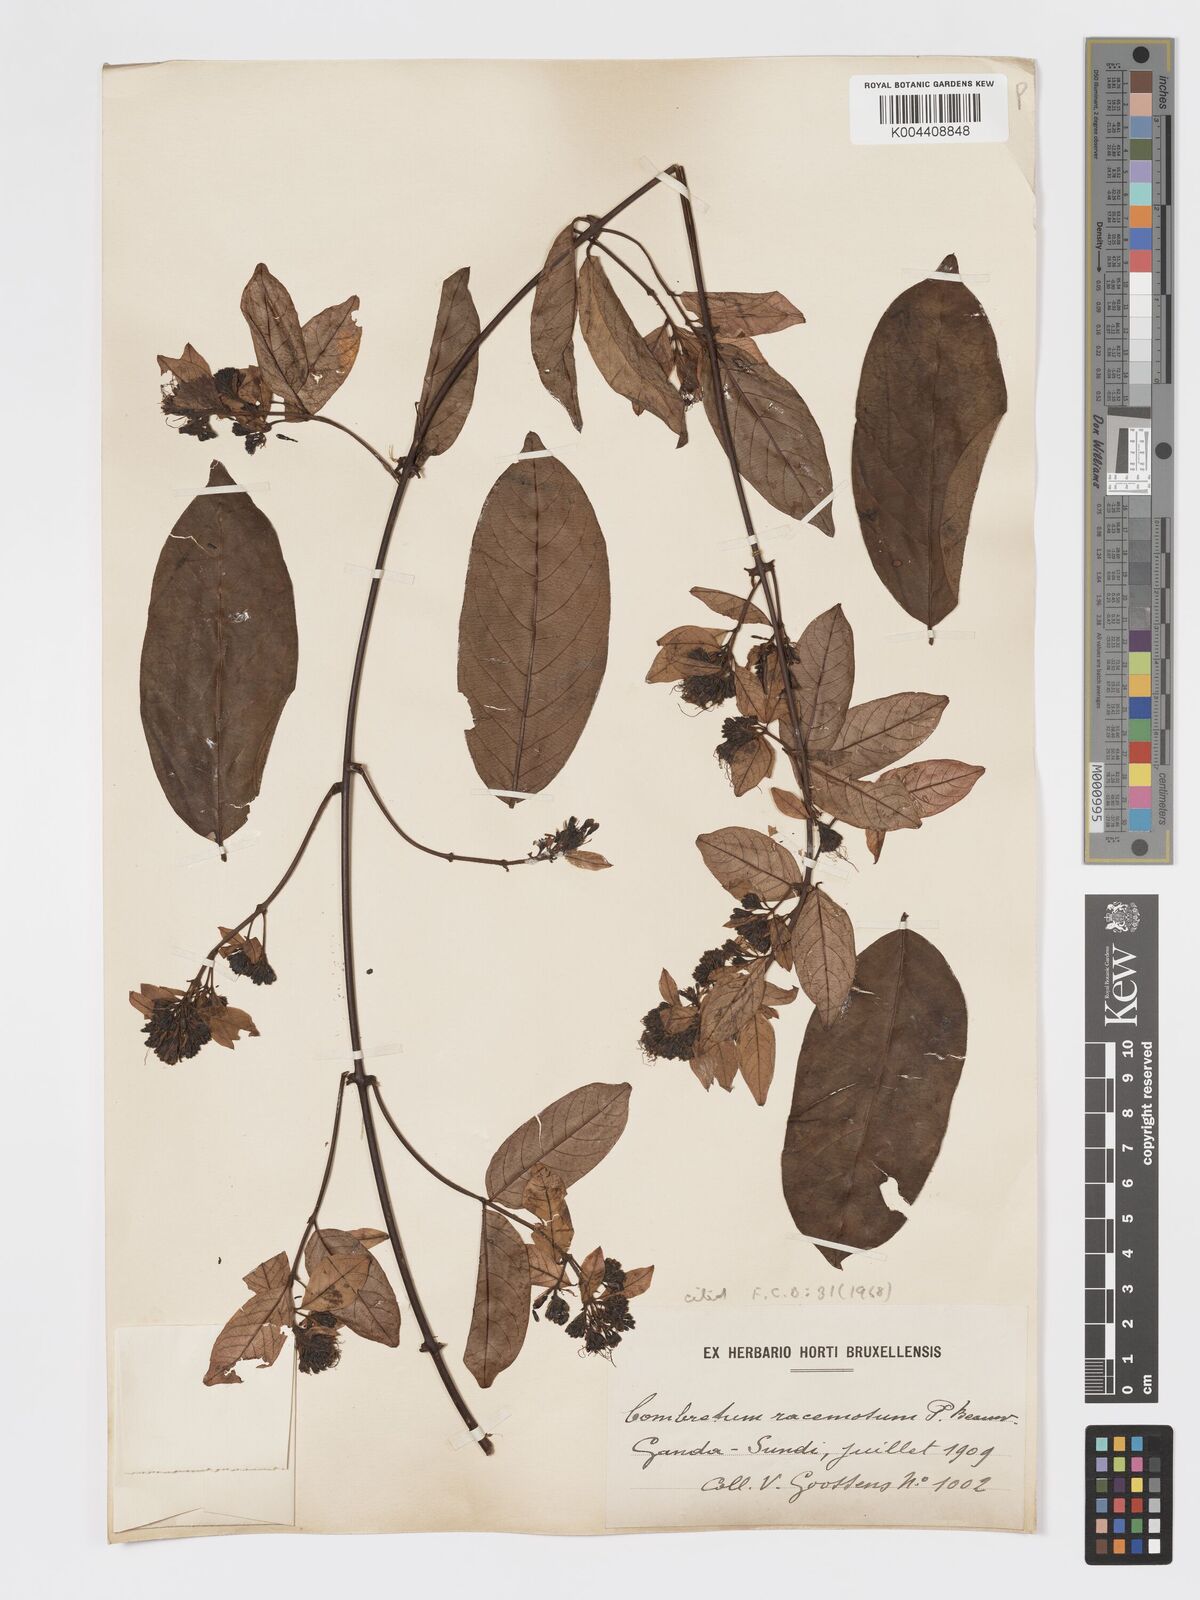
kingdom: Plantae
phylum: Tracheophyta
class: Magnoliopsida
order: Myrtales
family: Combretaceae
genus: Combretum
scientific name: Combretum racemosum
